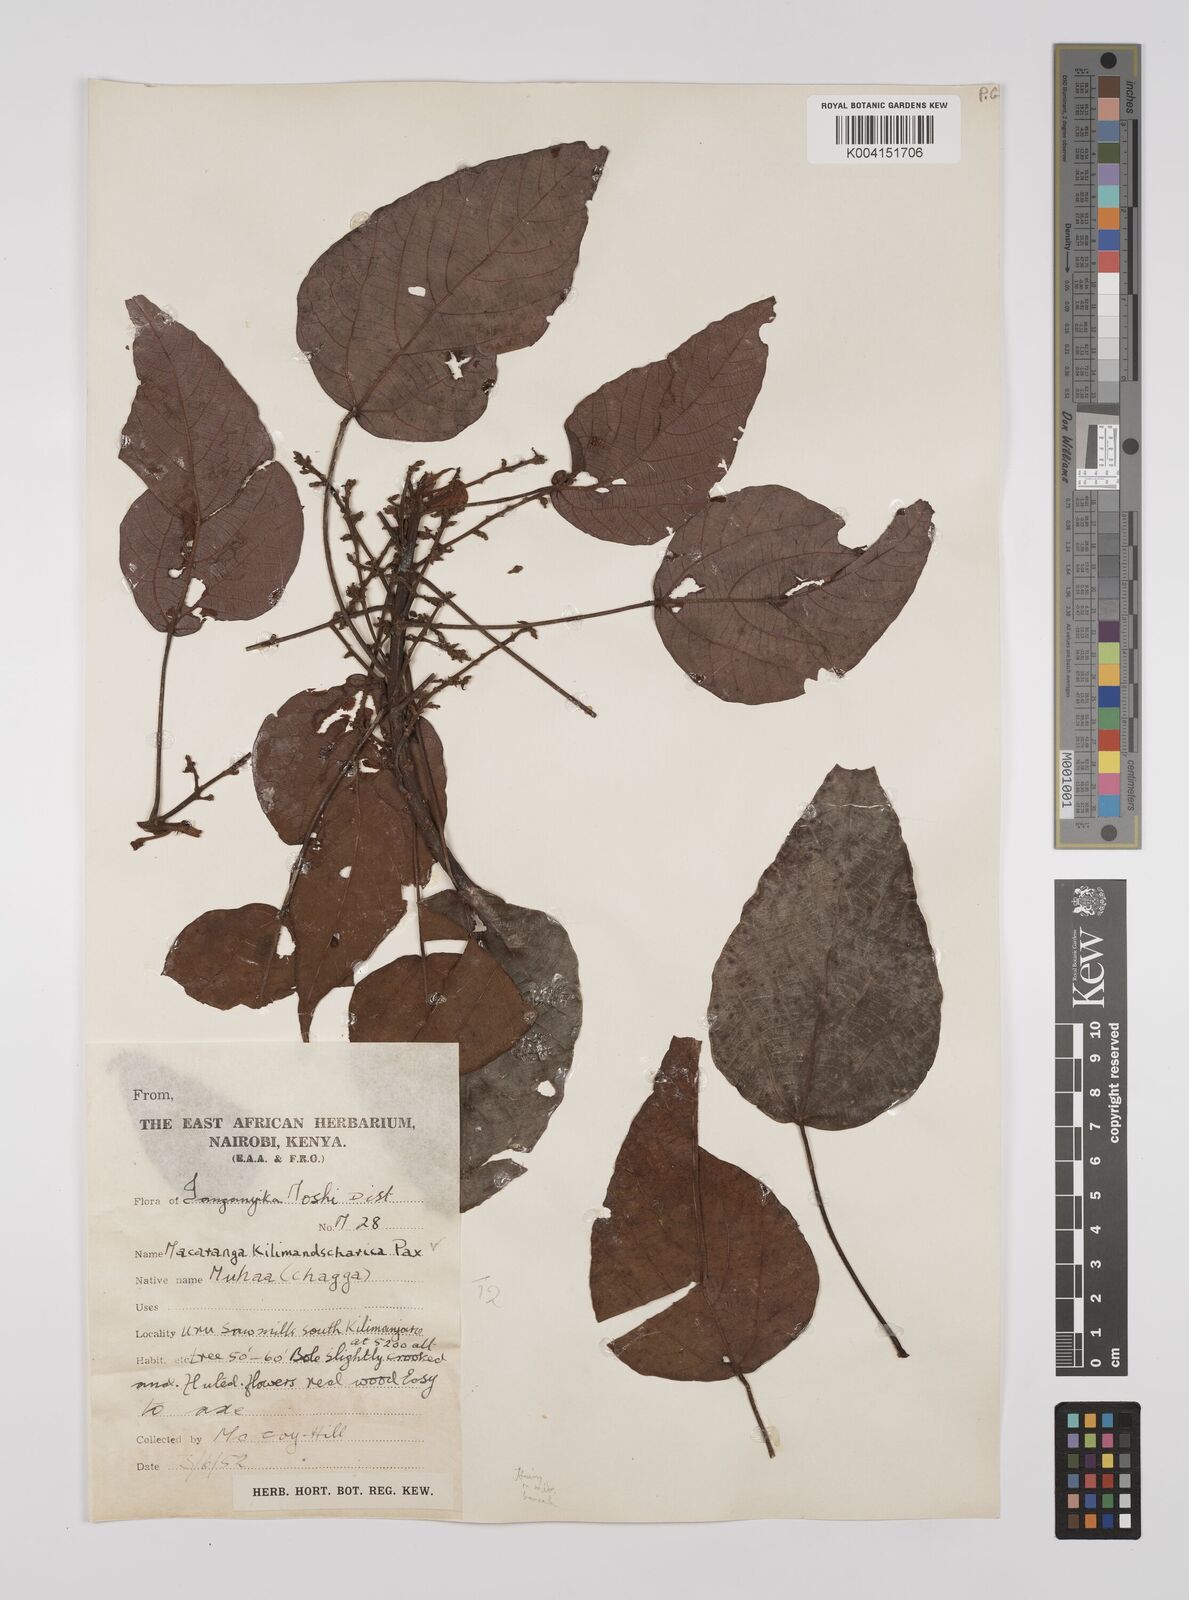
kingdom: Plantae
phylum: Tracheophyta
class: Magnoliopsida
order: Malpighiales
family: Euphorbiaceae
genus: Macaranga
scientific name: Macaranga kilimandscharica
